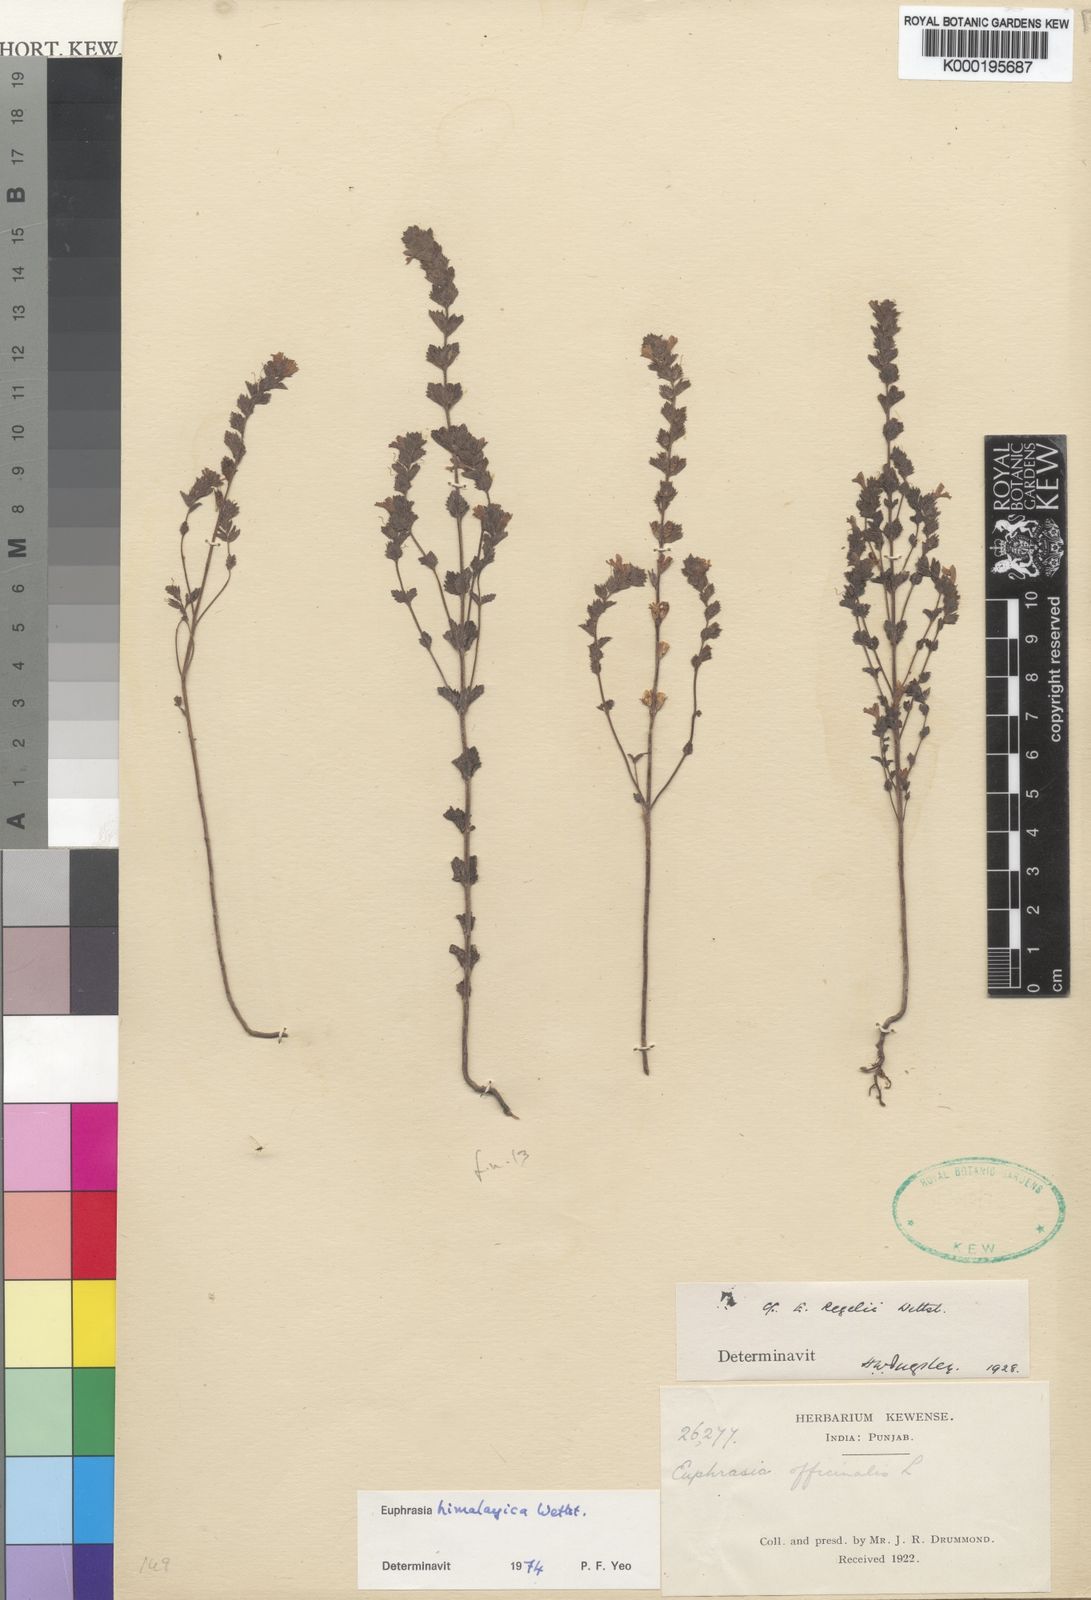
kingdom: Plantae
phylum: Tracheophyta
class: Magnoliopsida
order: Lamiales
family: Orobanchaceae
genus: Euphrasia
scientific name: Euphrasia himalayica
